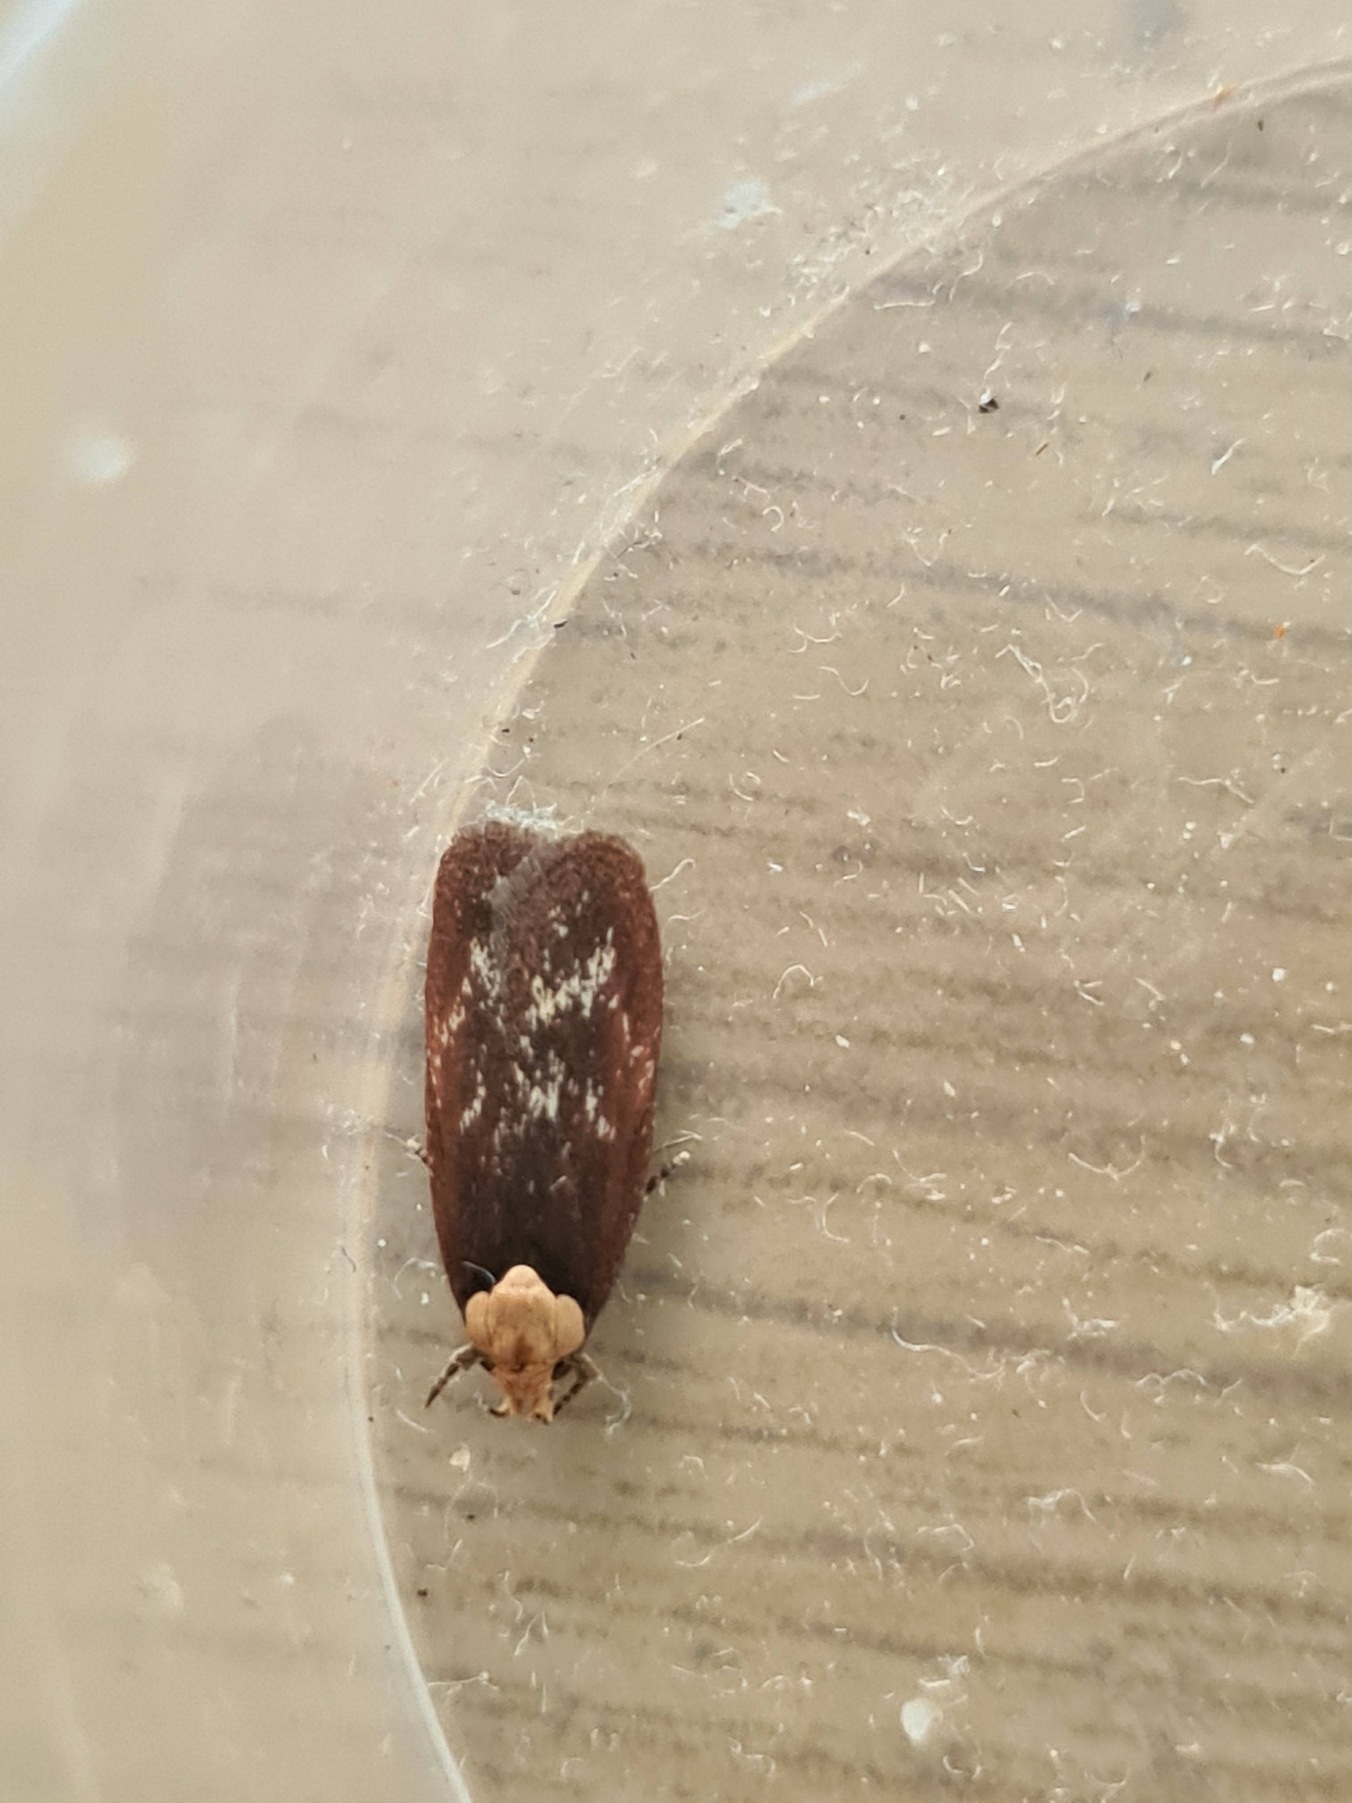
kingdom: Animalia
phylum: Arthropoda
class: Insecta
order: Lepidoptera
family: Depressariidae
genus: Depressaria
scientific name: Depressaria depressana
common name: Gulerodsmøl
